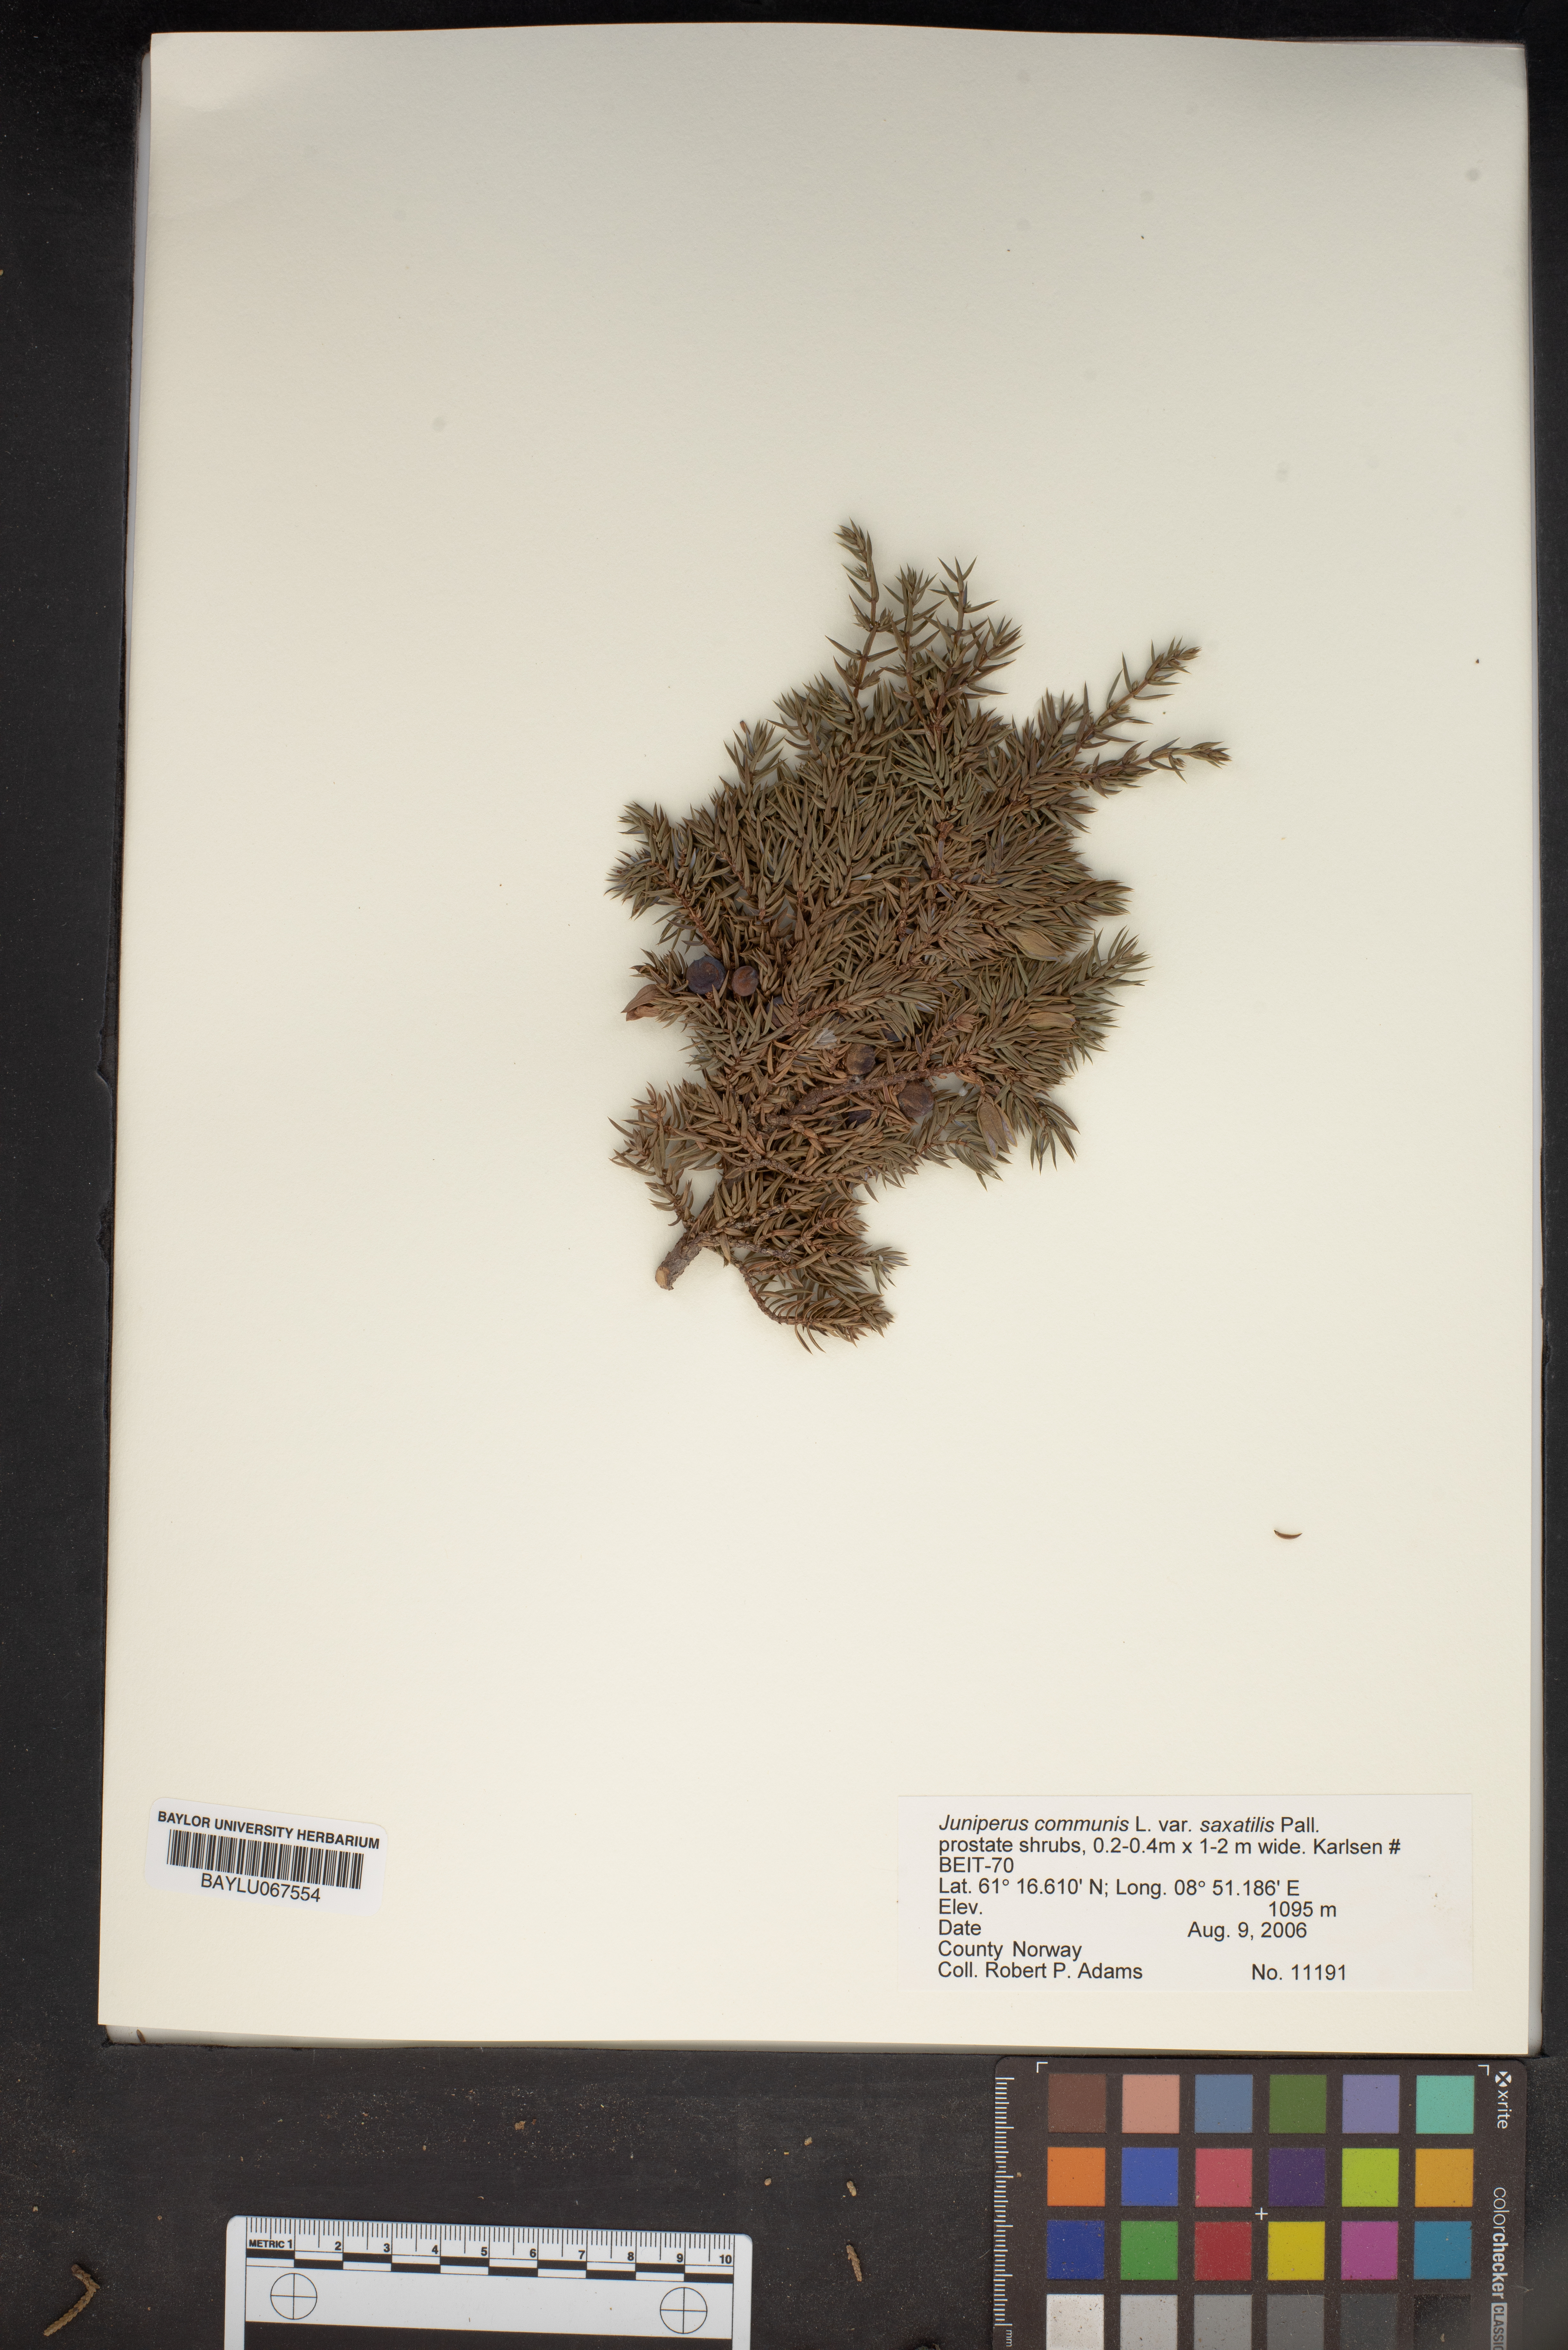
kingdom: Plantae
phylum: Tracheophyta
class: Pinopsida
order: Pinales
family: Cupressaceae
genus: Juniperus
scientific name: Juniperus communis
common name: Common juniper
